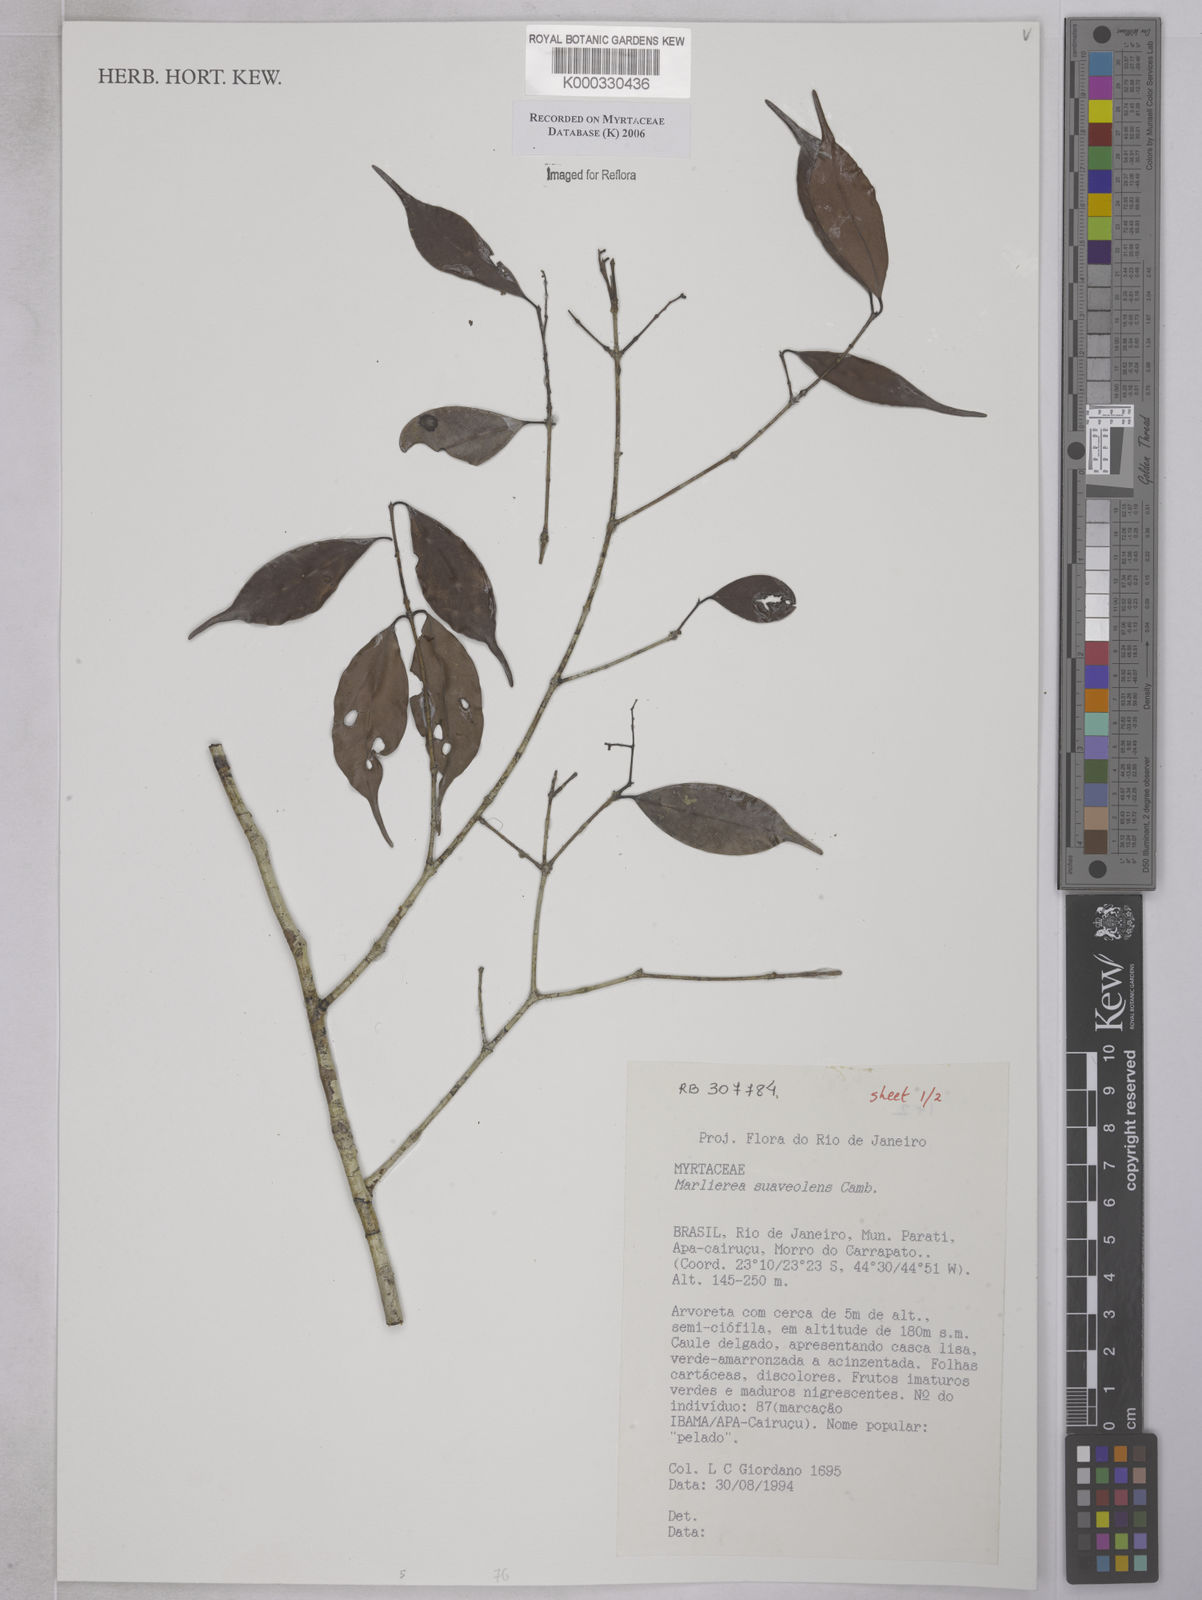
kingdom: Plantae
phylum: Tracheophyta
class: Magnoliopsida
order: Myrtales
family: Myrtaceae
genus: Myrcia
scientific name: Myrcia neosuaveolens
